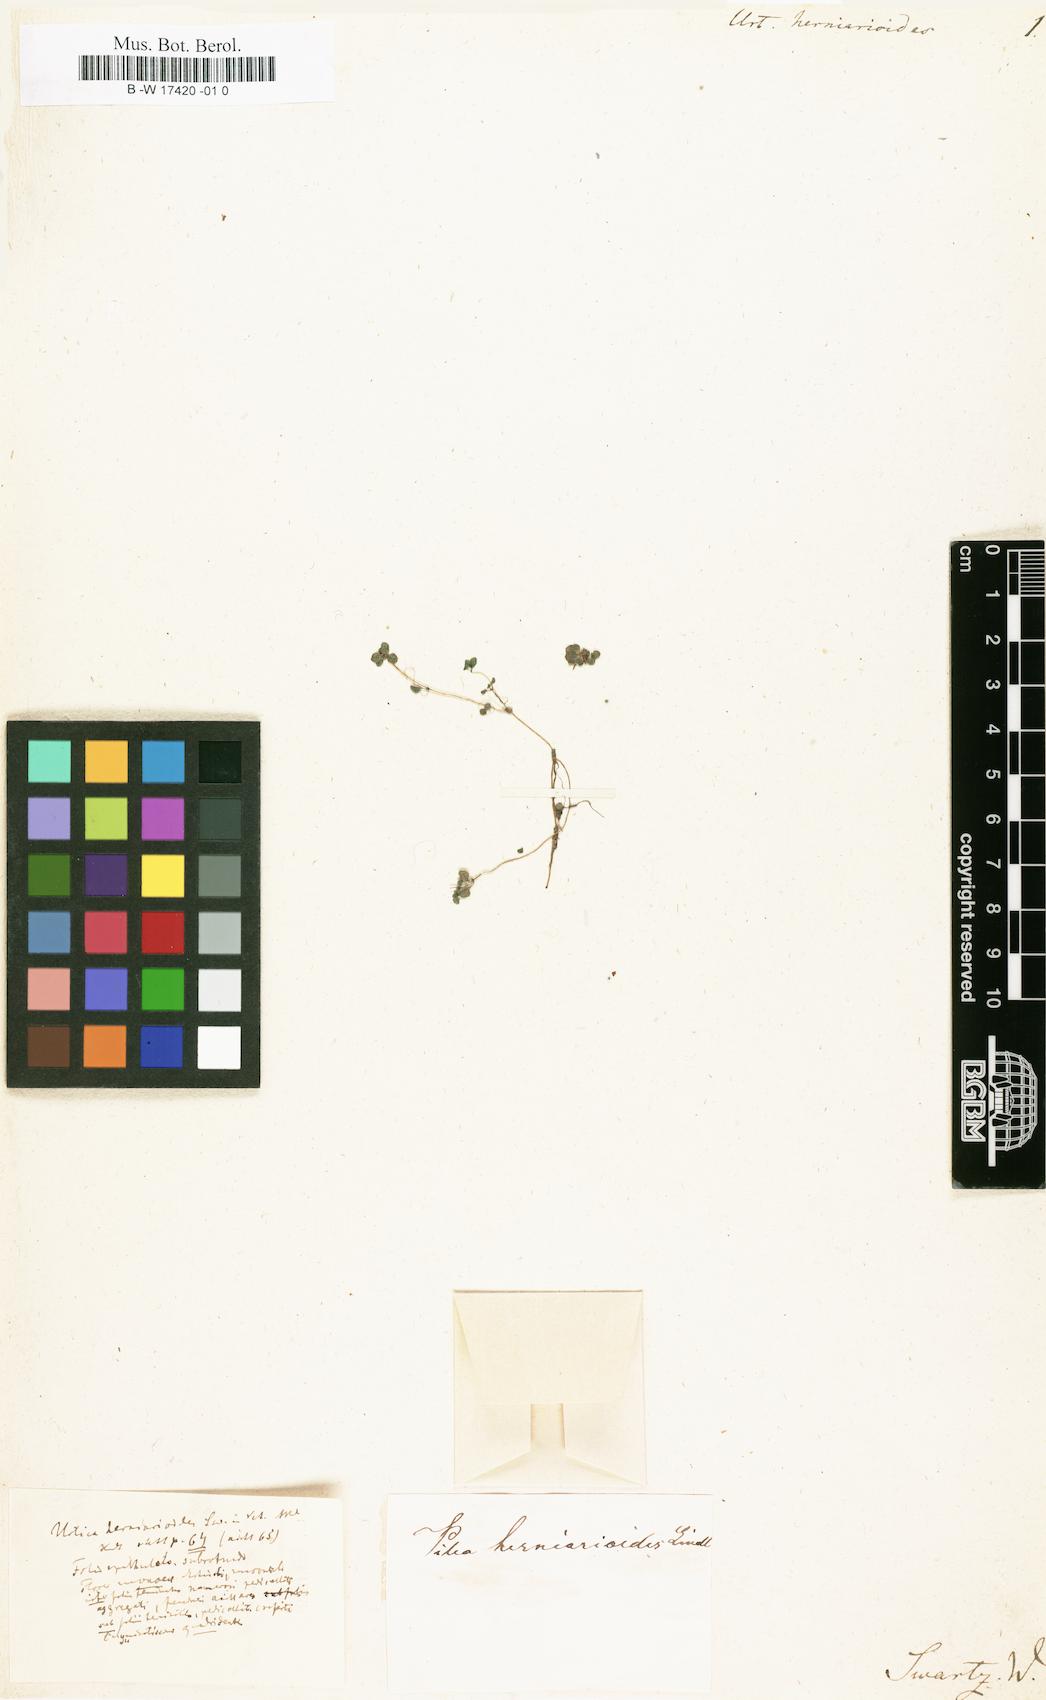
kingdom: Plantae
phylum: Tracheophyta
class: Magnoliopsida
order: Rosales
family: Urticaceae
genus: Pilea
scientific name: Pilea herniarioides
